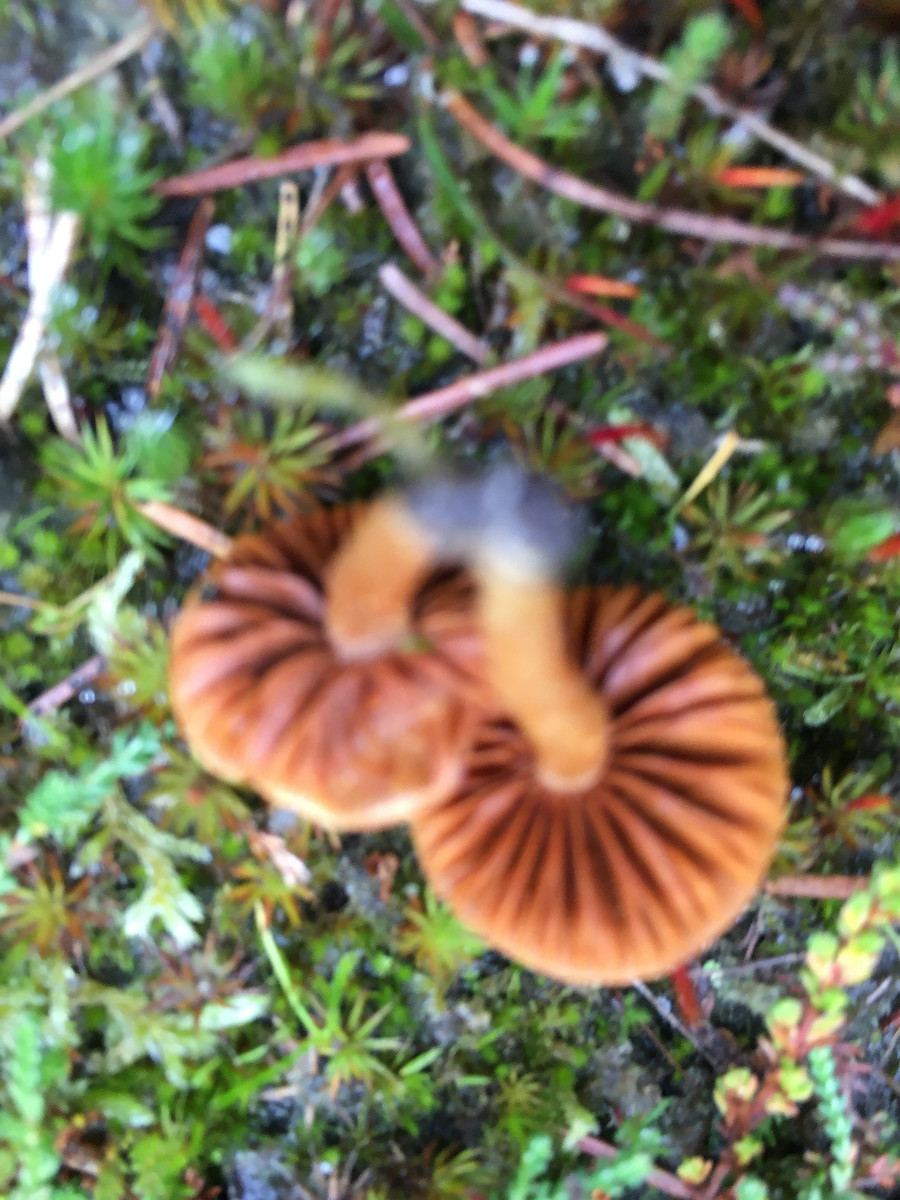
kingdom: Fungi
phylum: Basidiomycota
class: Agaricomycetes
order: Agaricales
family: Cortinariaceae
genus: Cortinarius
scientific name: Cortinarius
